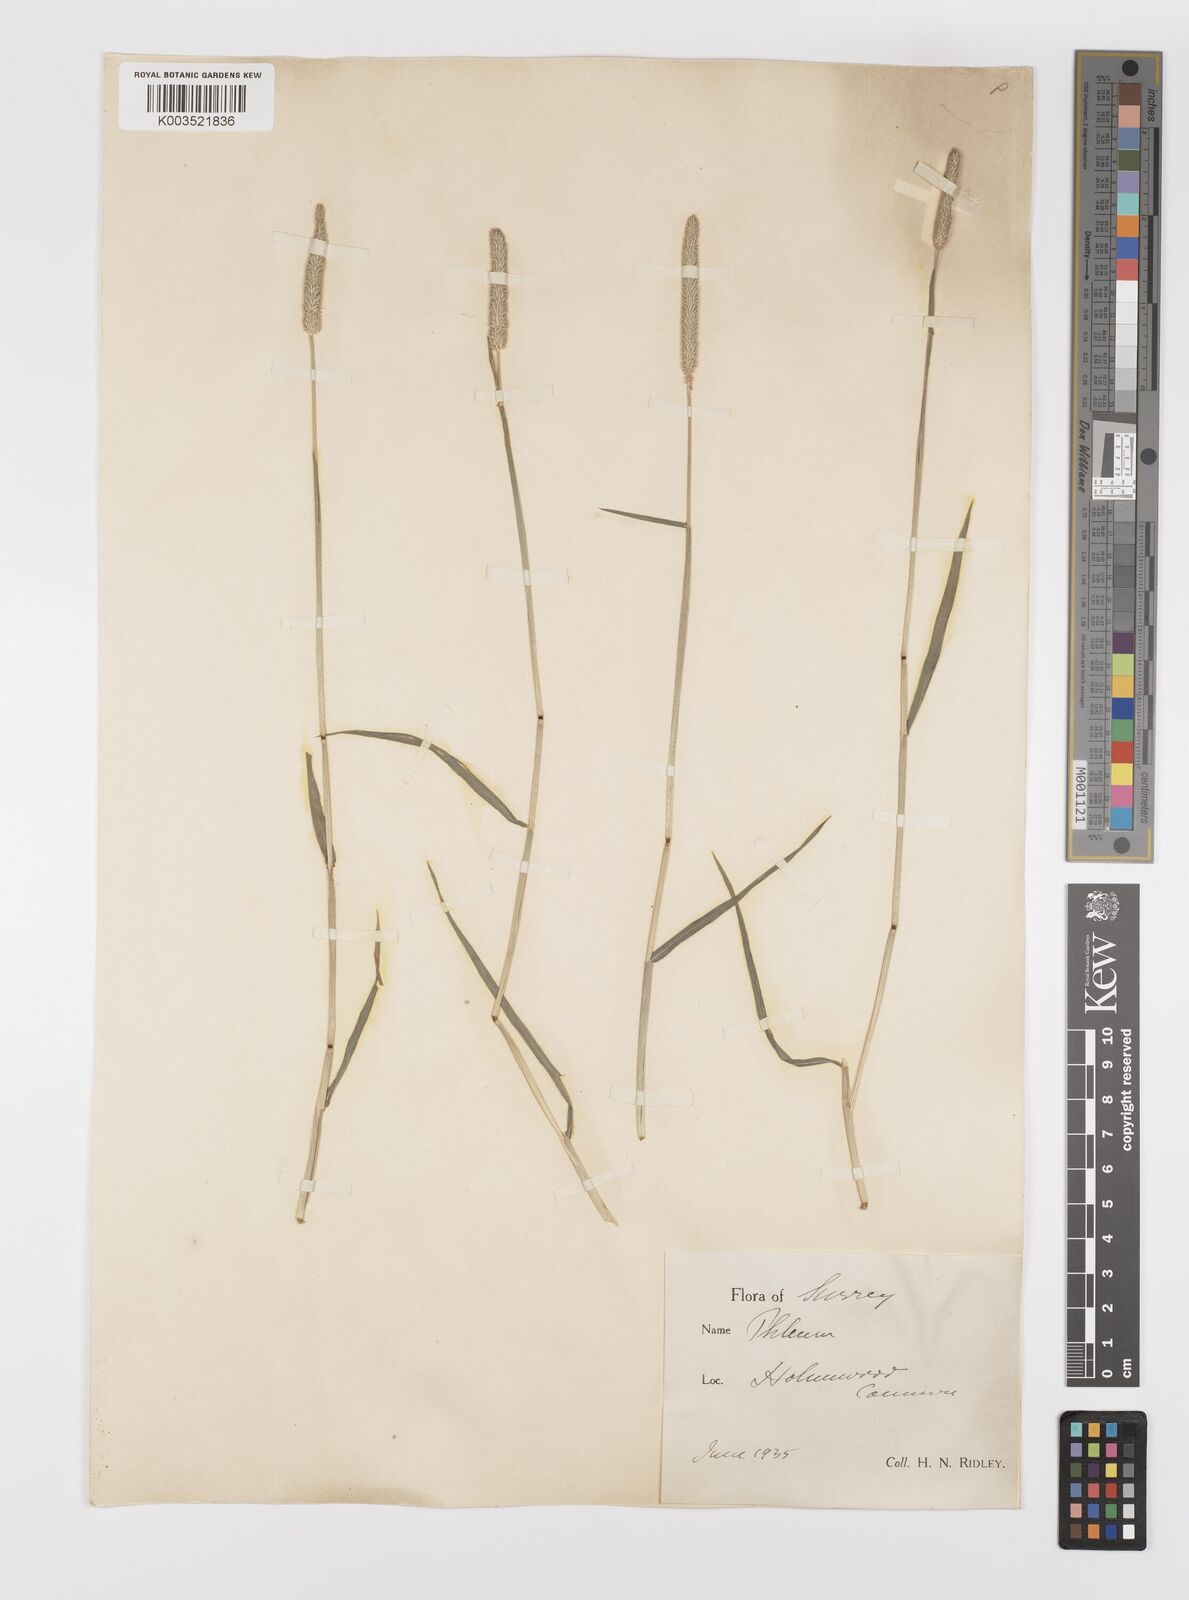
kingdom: Plantae
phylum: Tracheophyta
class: Liliopsida
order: Poales
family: Poaceae
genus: Phleum
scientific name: Phleum bertolonii
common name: Smaller cat's-tail
